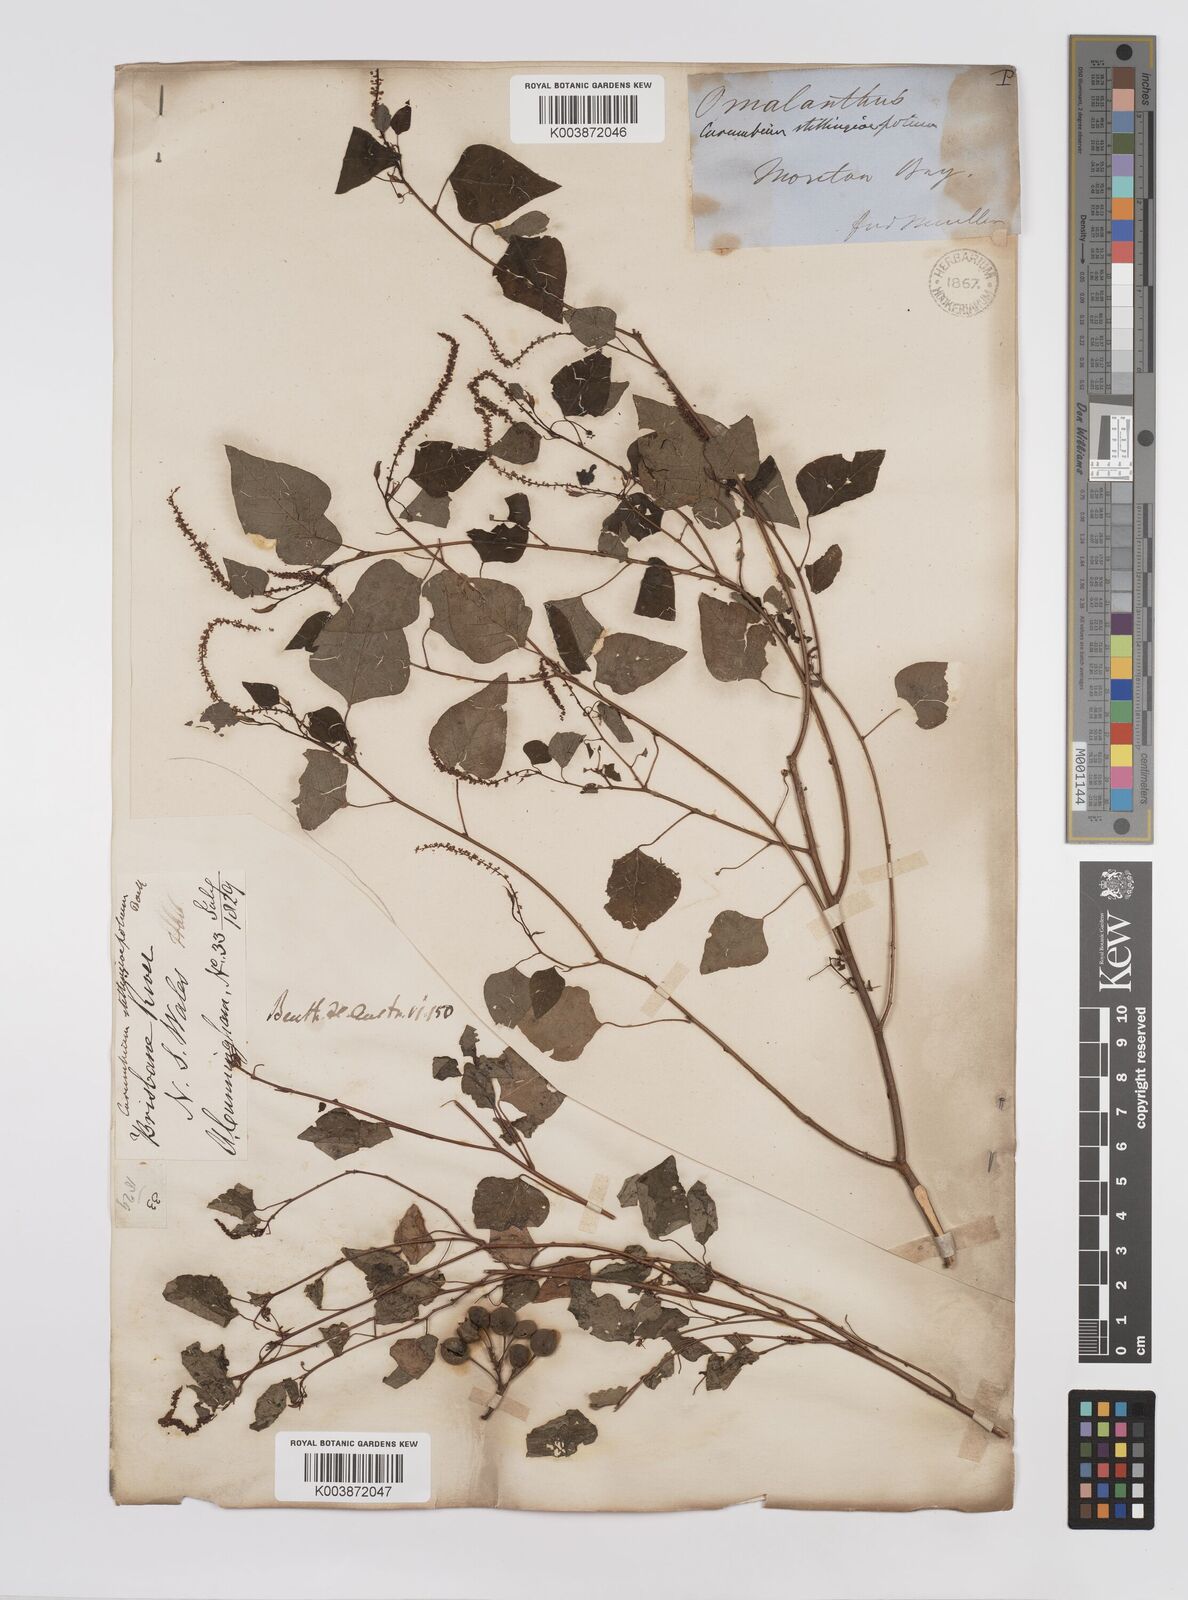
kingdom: Plantae
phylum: Tracheophyta
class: Magnoliopsida
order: Malpighiales
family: Euphorbiaceae
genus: Homalanthus
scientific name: Homalanthus stillingifolius
